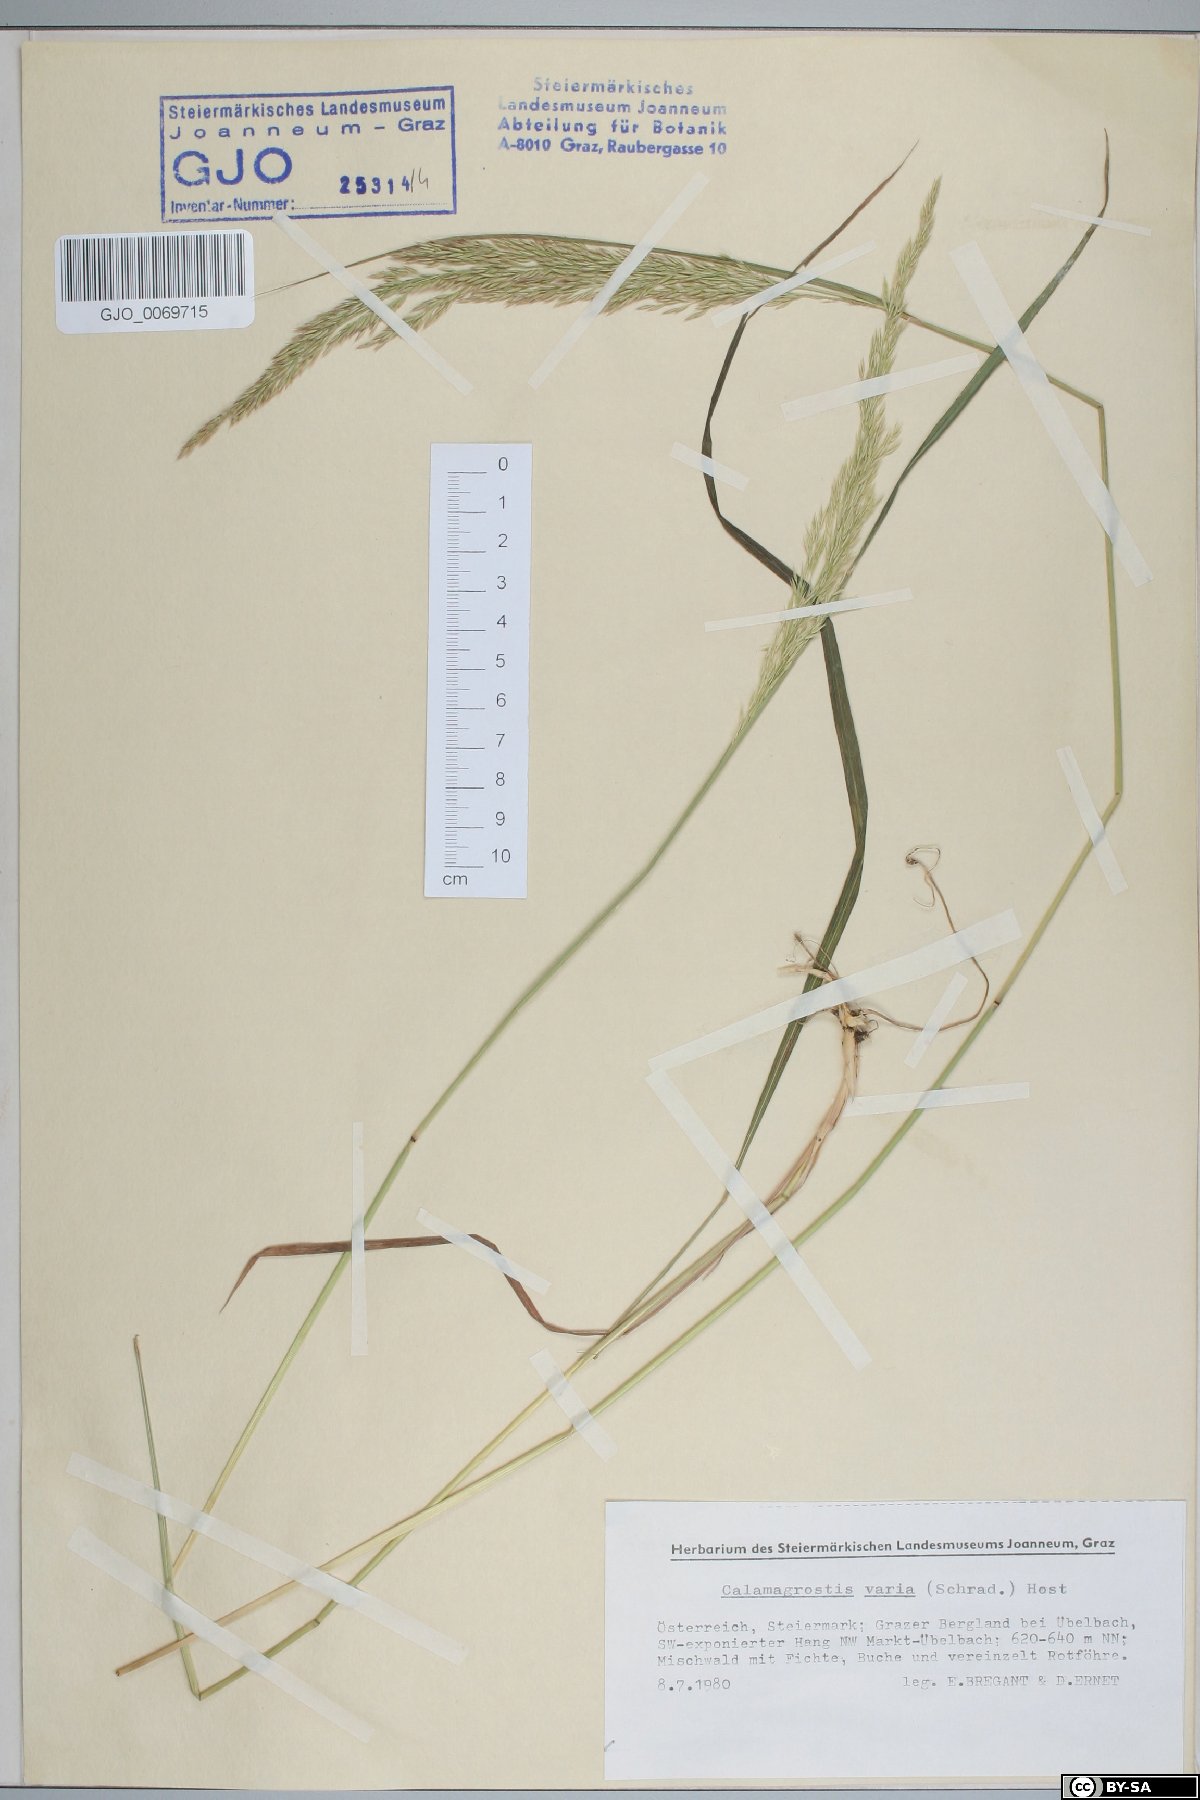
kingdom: Plantae
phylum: Tracheophyta
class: Liliopsida
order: Poales
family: Poaceae
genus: Calamagrostis
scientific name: Calamagrostis varia
